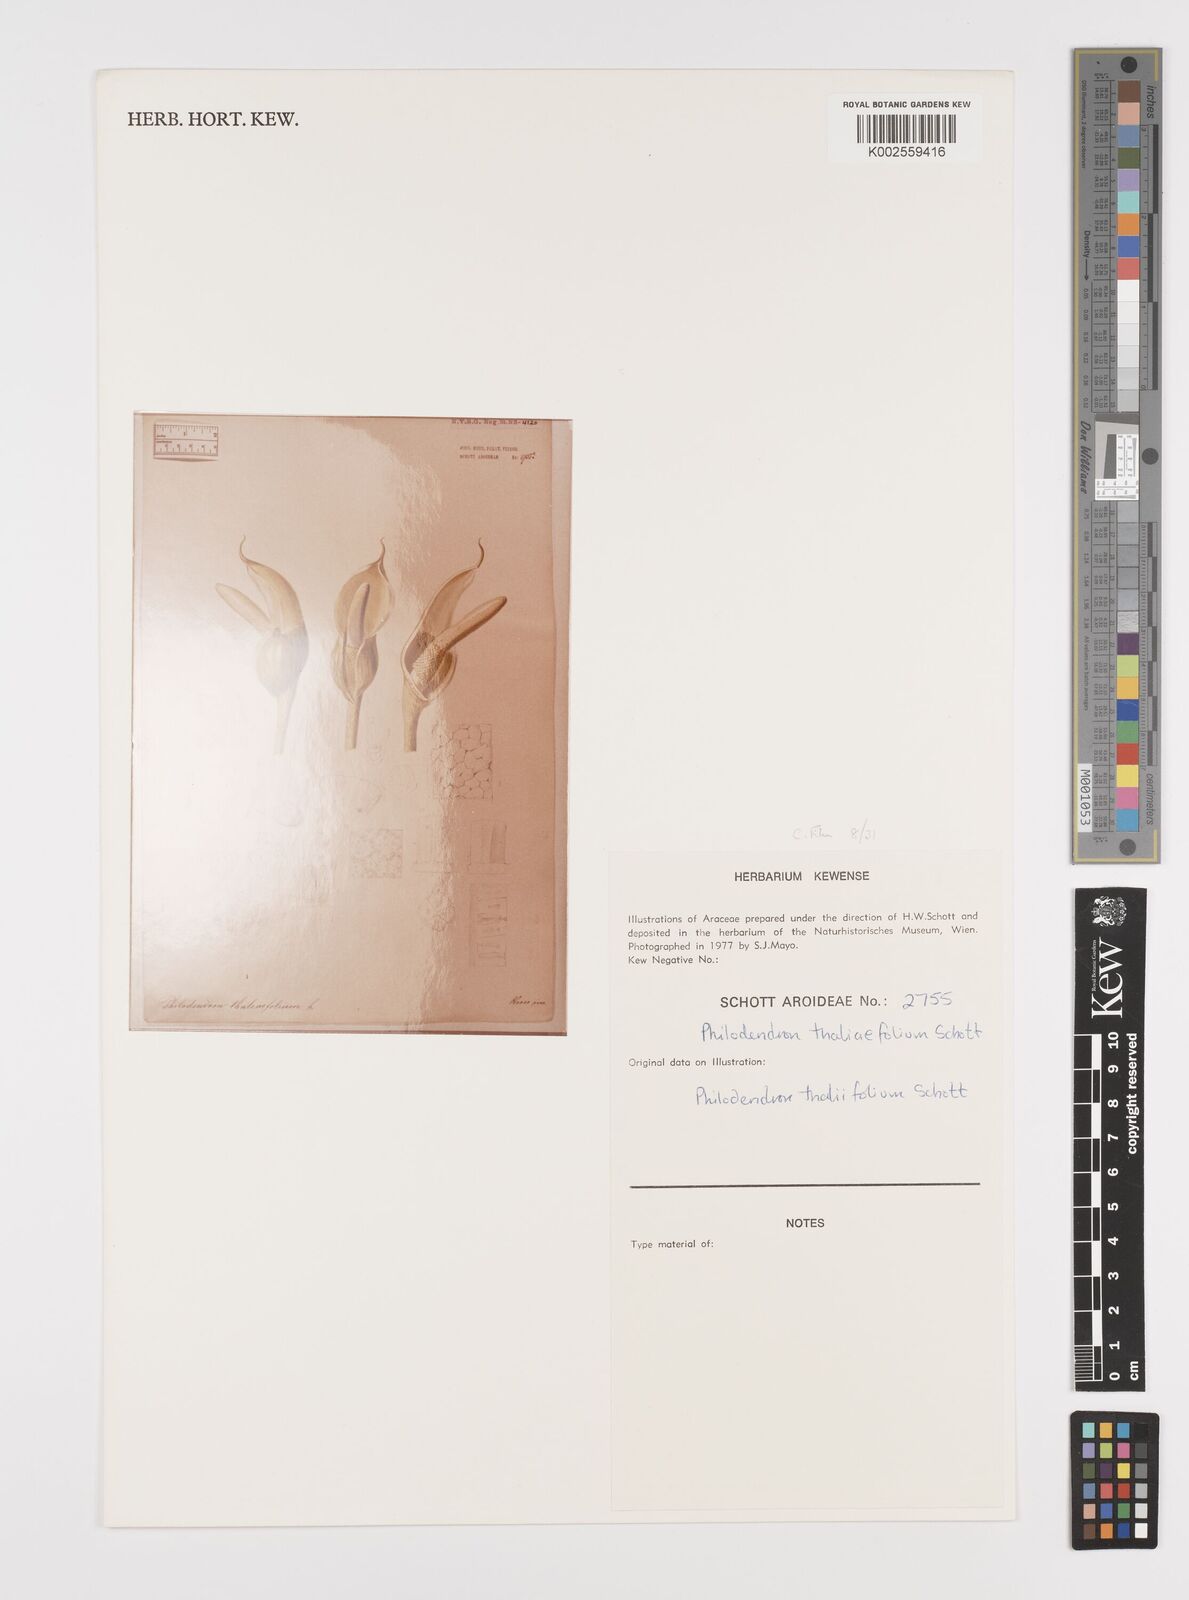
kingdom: Plantae
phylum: Tracheophyta
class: Liliopsida
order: Alismatales
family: Araceae
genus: Philodendron
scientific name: Philodendron thaliifolium
